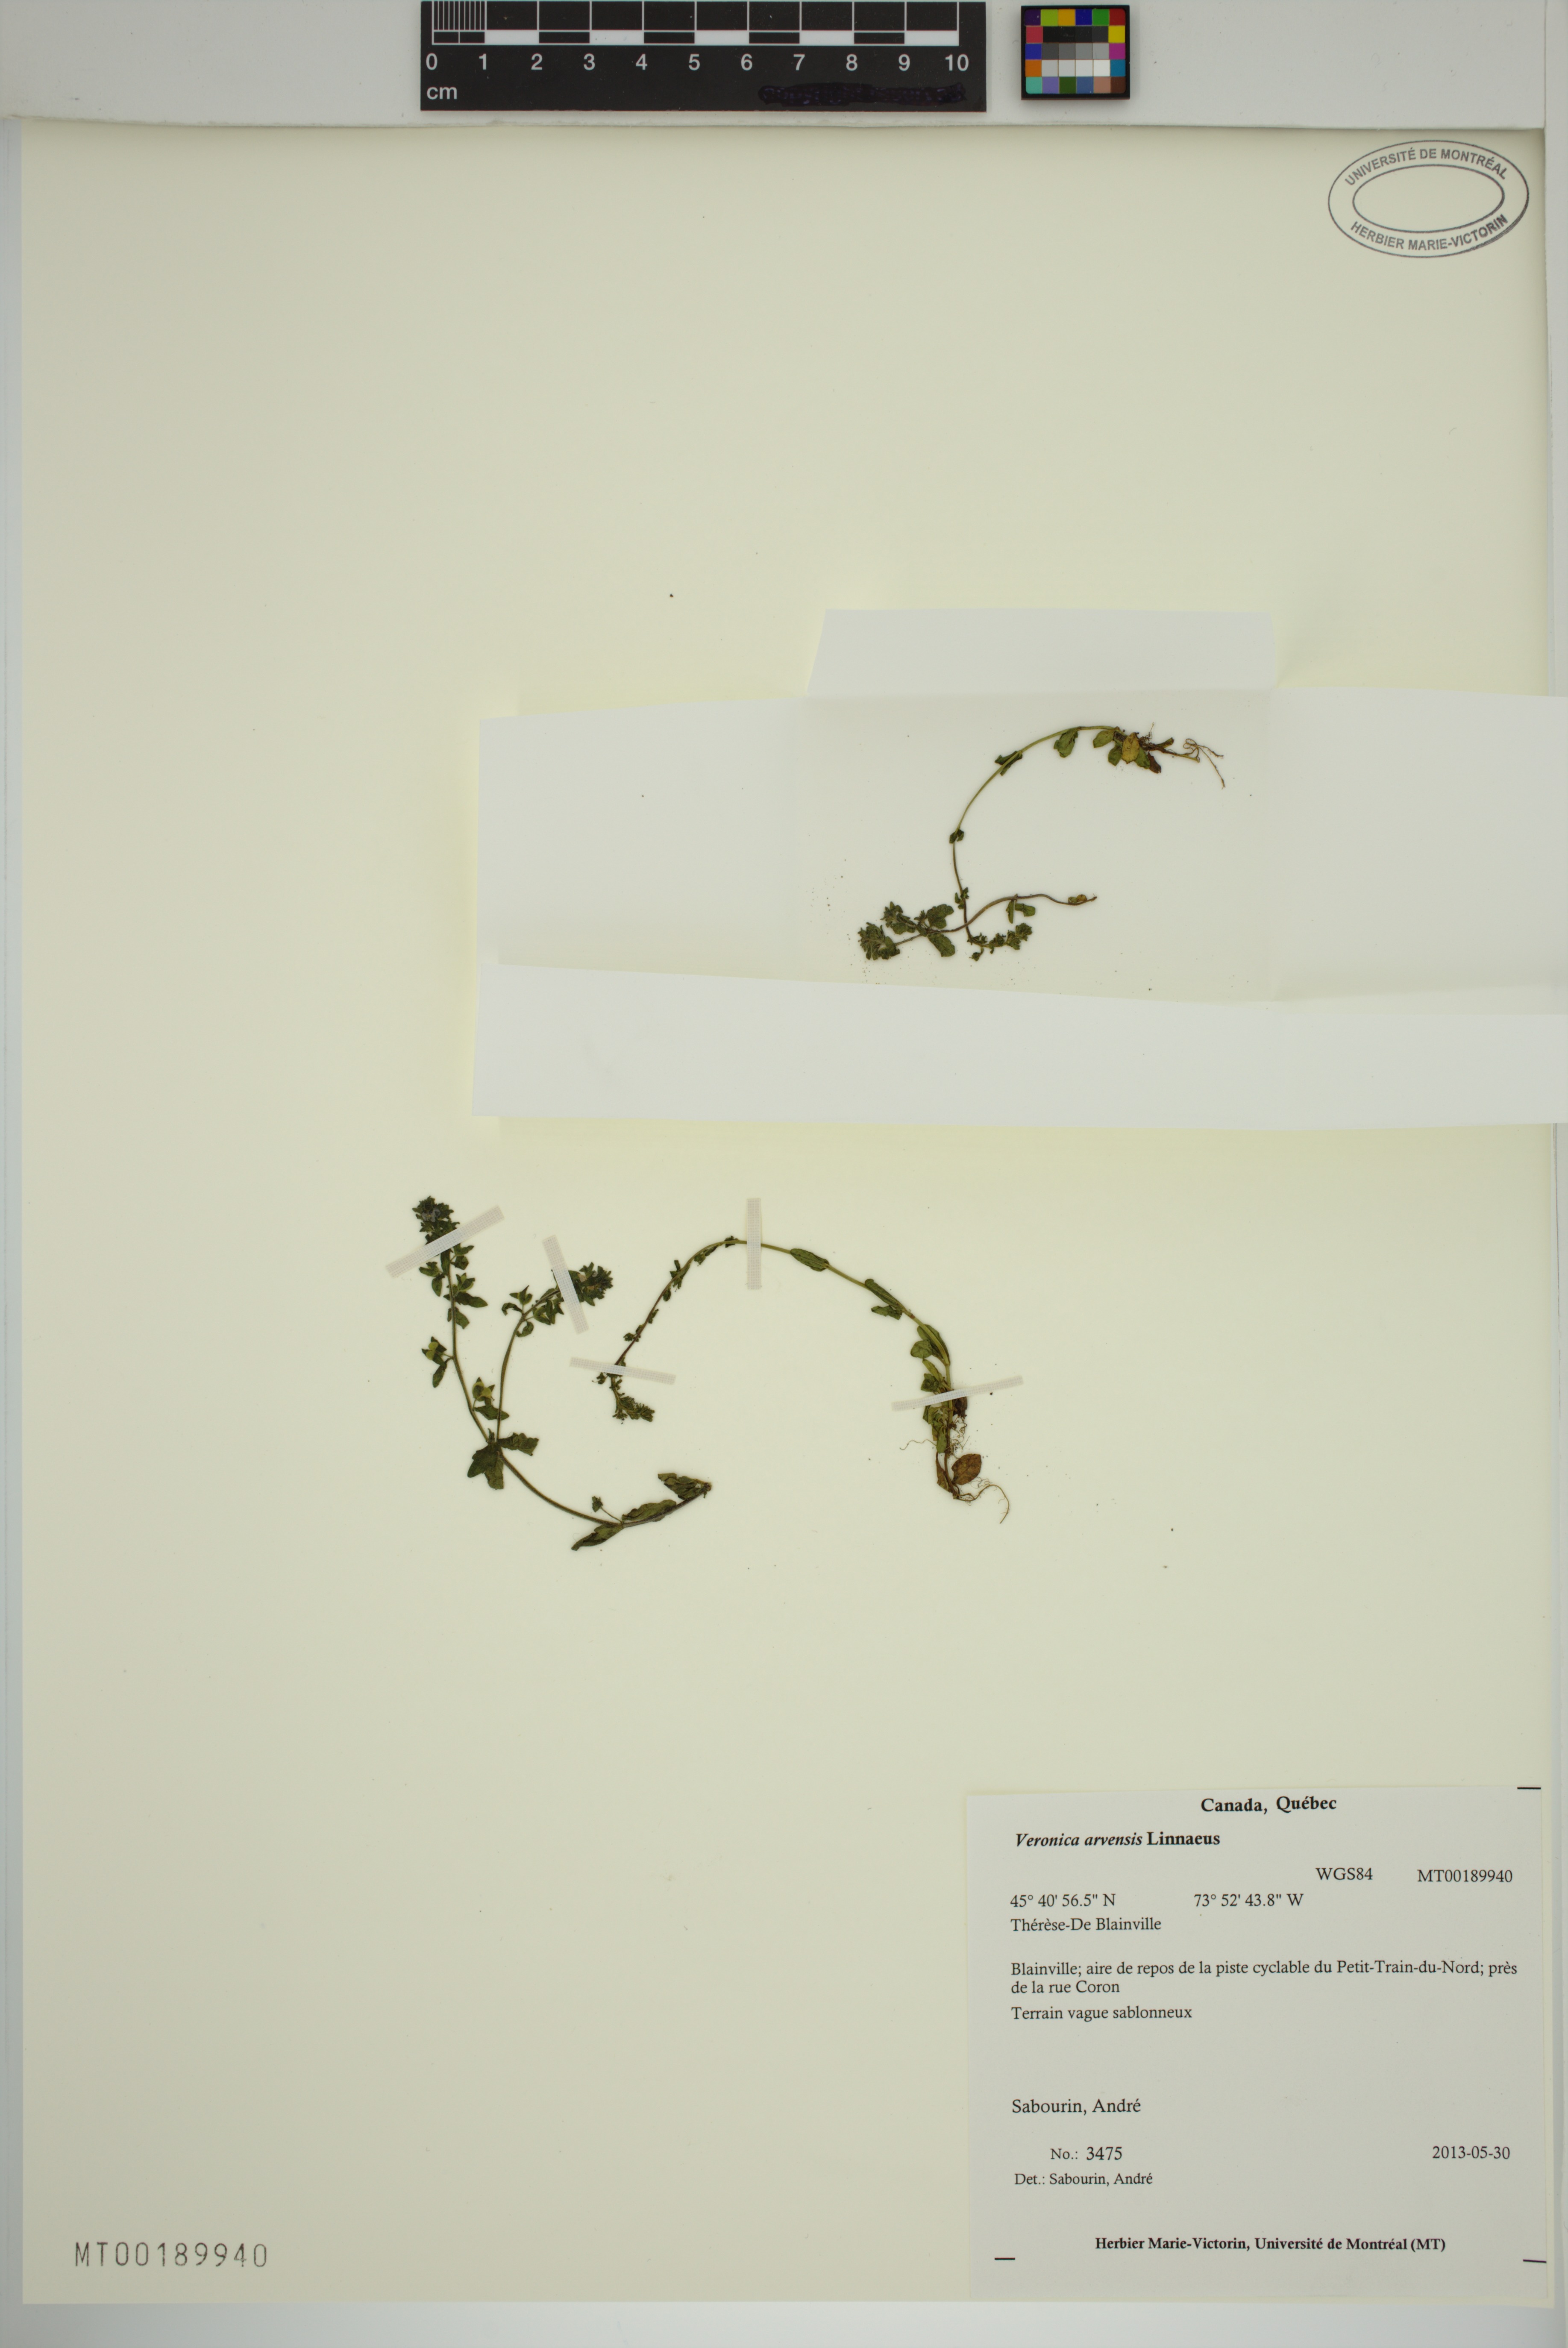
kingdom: Plantae
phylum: Tracheophyta
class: Magnoliopsida
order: Lamiales
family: Plantaginaceae
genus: Veronica
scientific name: Veronica arvensis
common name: Corn speedwell
